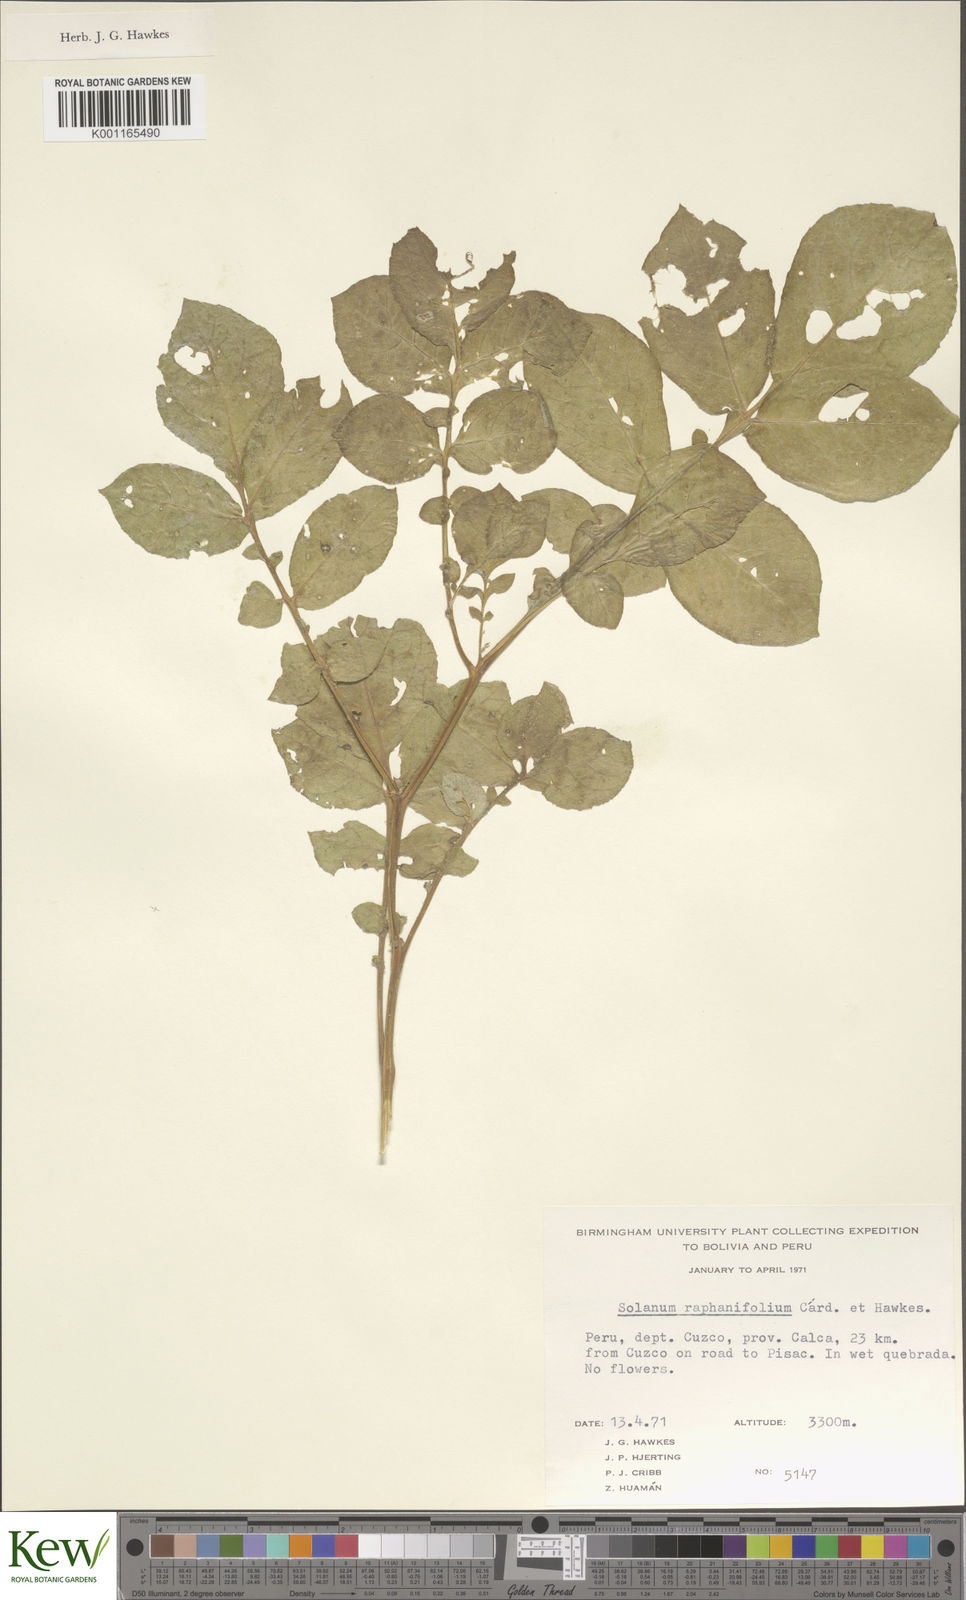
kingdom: Plantae
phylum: Tracheophyta
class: Magnoliopsida
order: Solanales
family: Solanaceae
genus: Solanum
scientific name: Solanum raphanifolium
